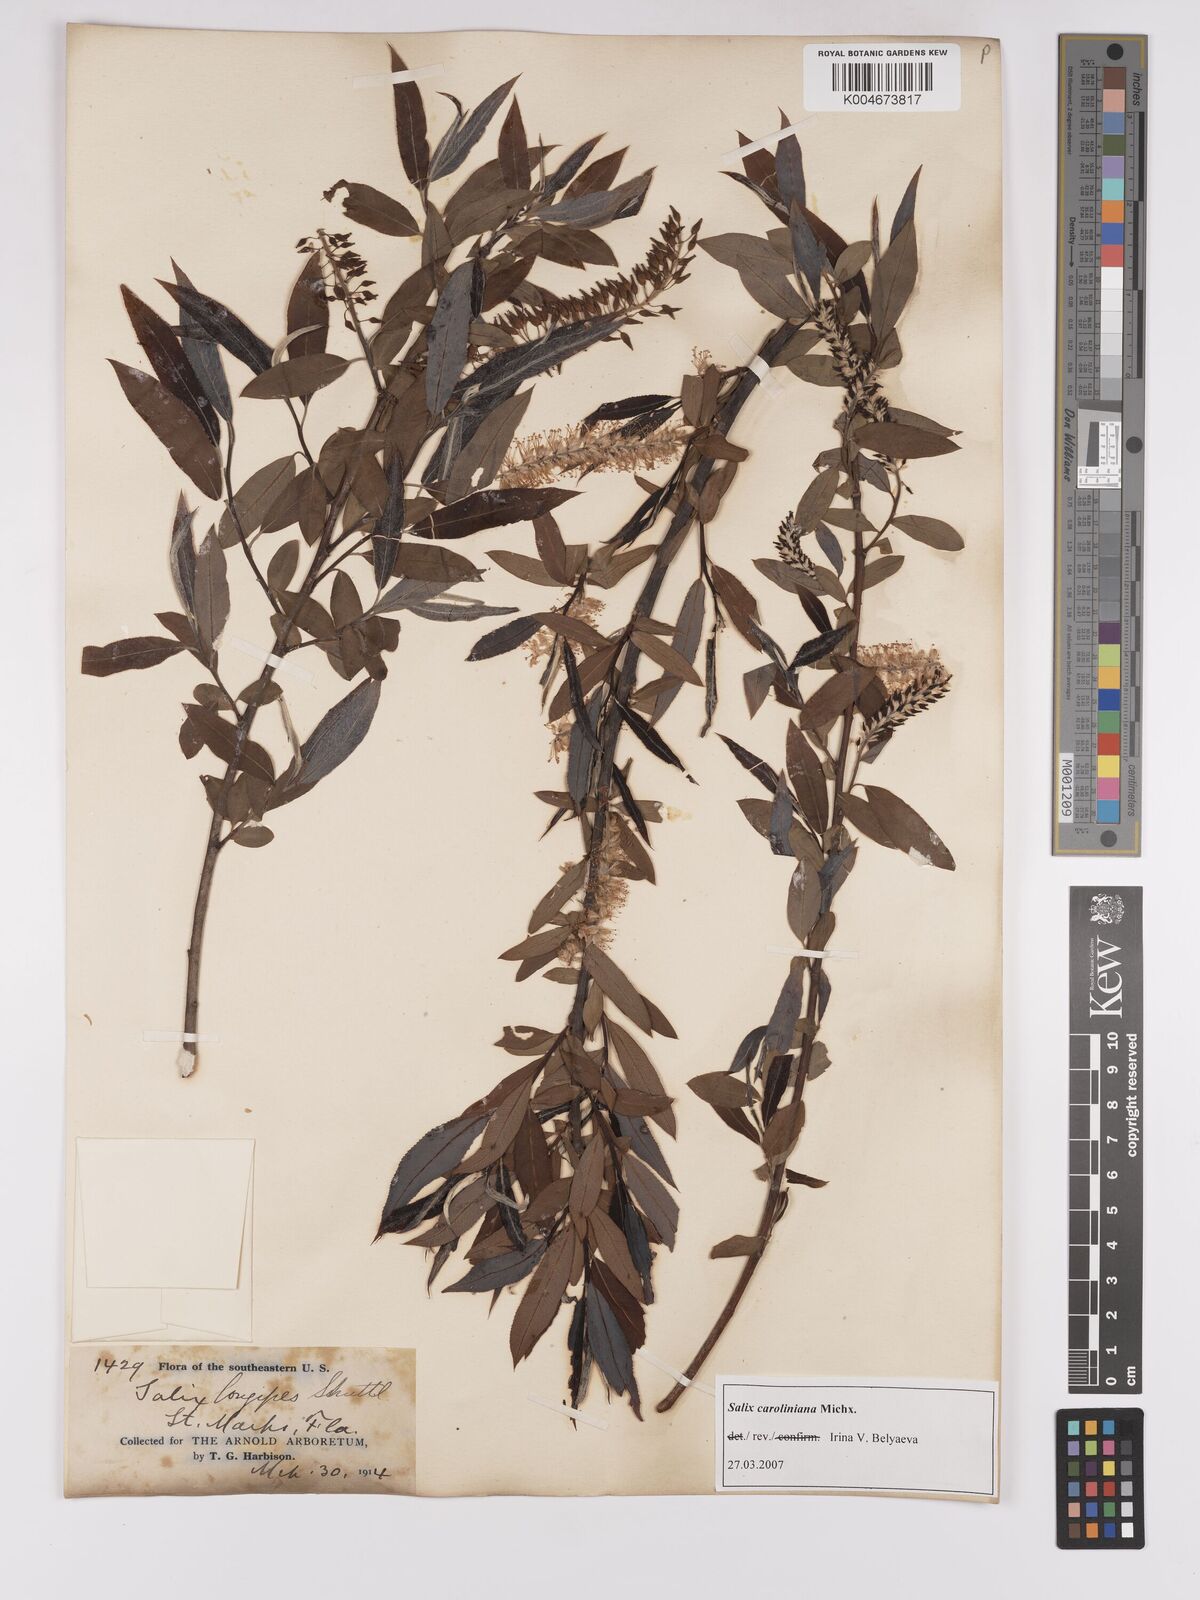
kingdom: Plantae
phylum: Tracheophyta
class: Magnoliopsida
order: Malpighiales
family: Salicaceae
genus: Salix
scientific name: Salix caroliniana
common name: Carolina willow
